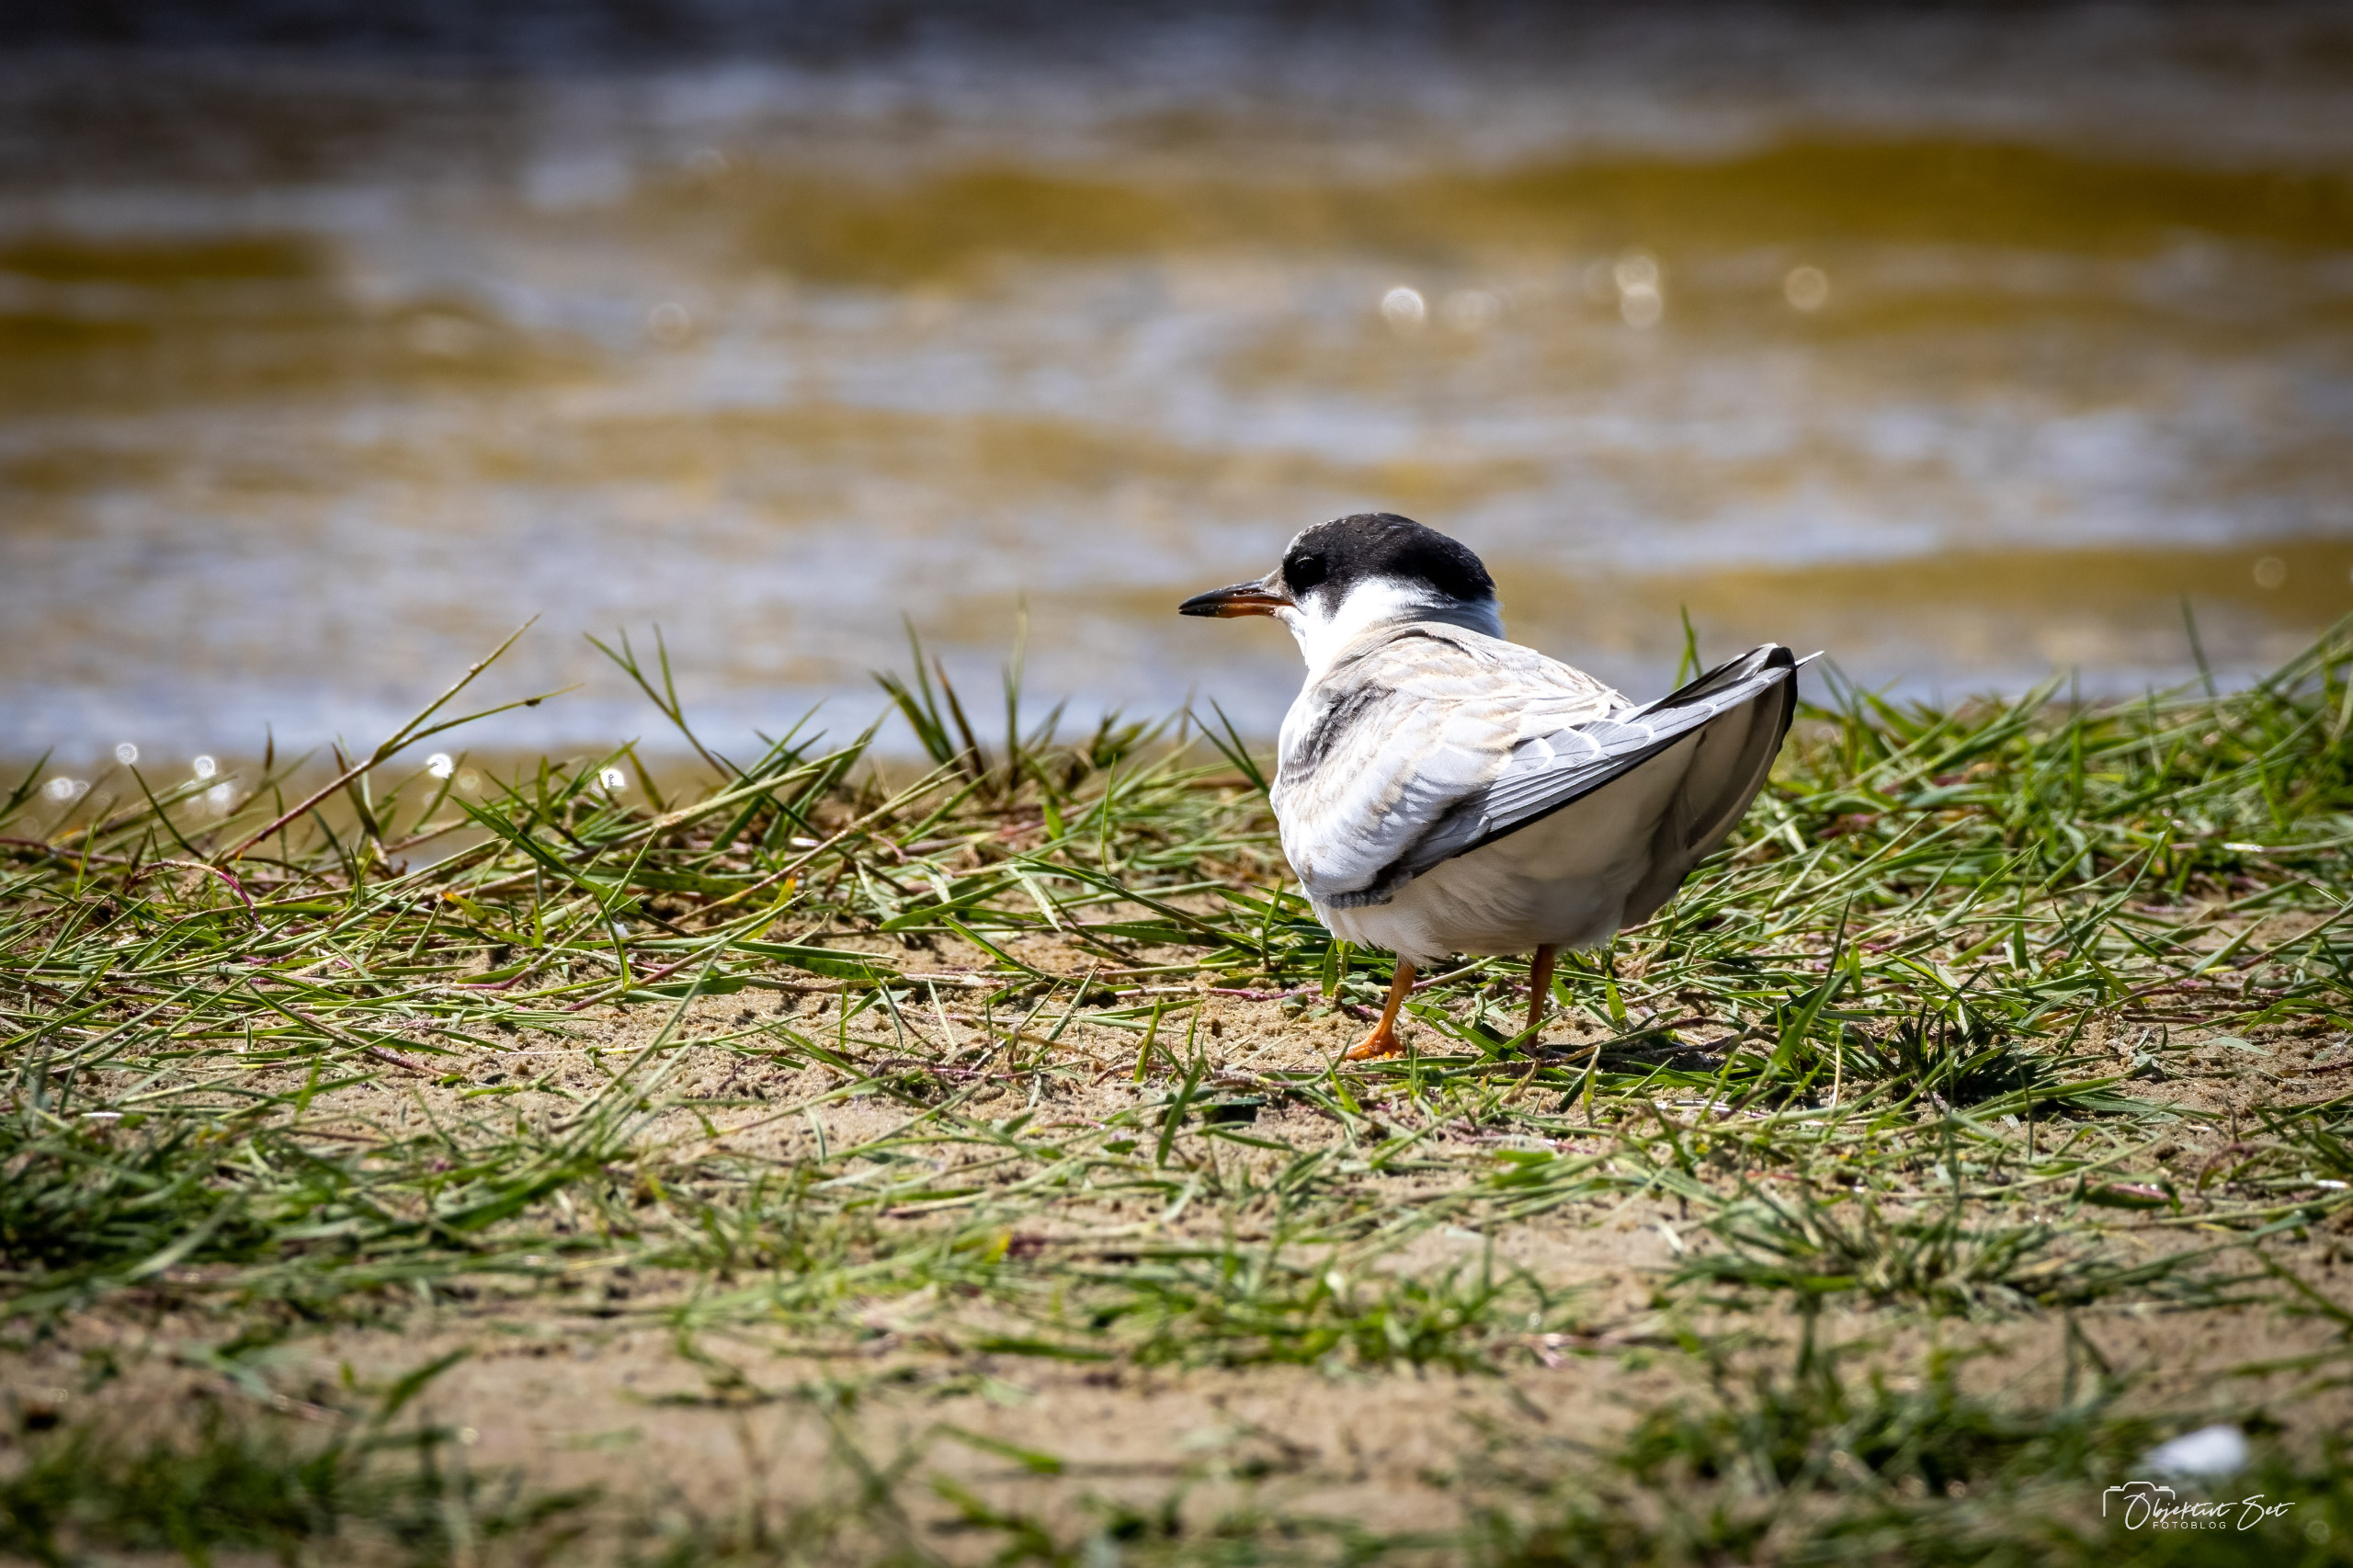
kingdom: Animalia
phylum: Chordata
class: Aves
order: Charadriiformes
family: Laridae
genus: Sterna
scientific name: Sterna hirundo
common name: Fjordterne
